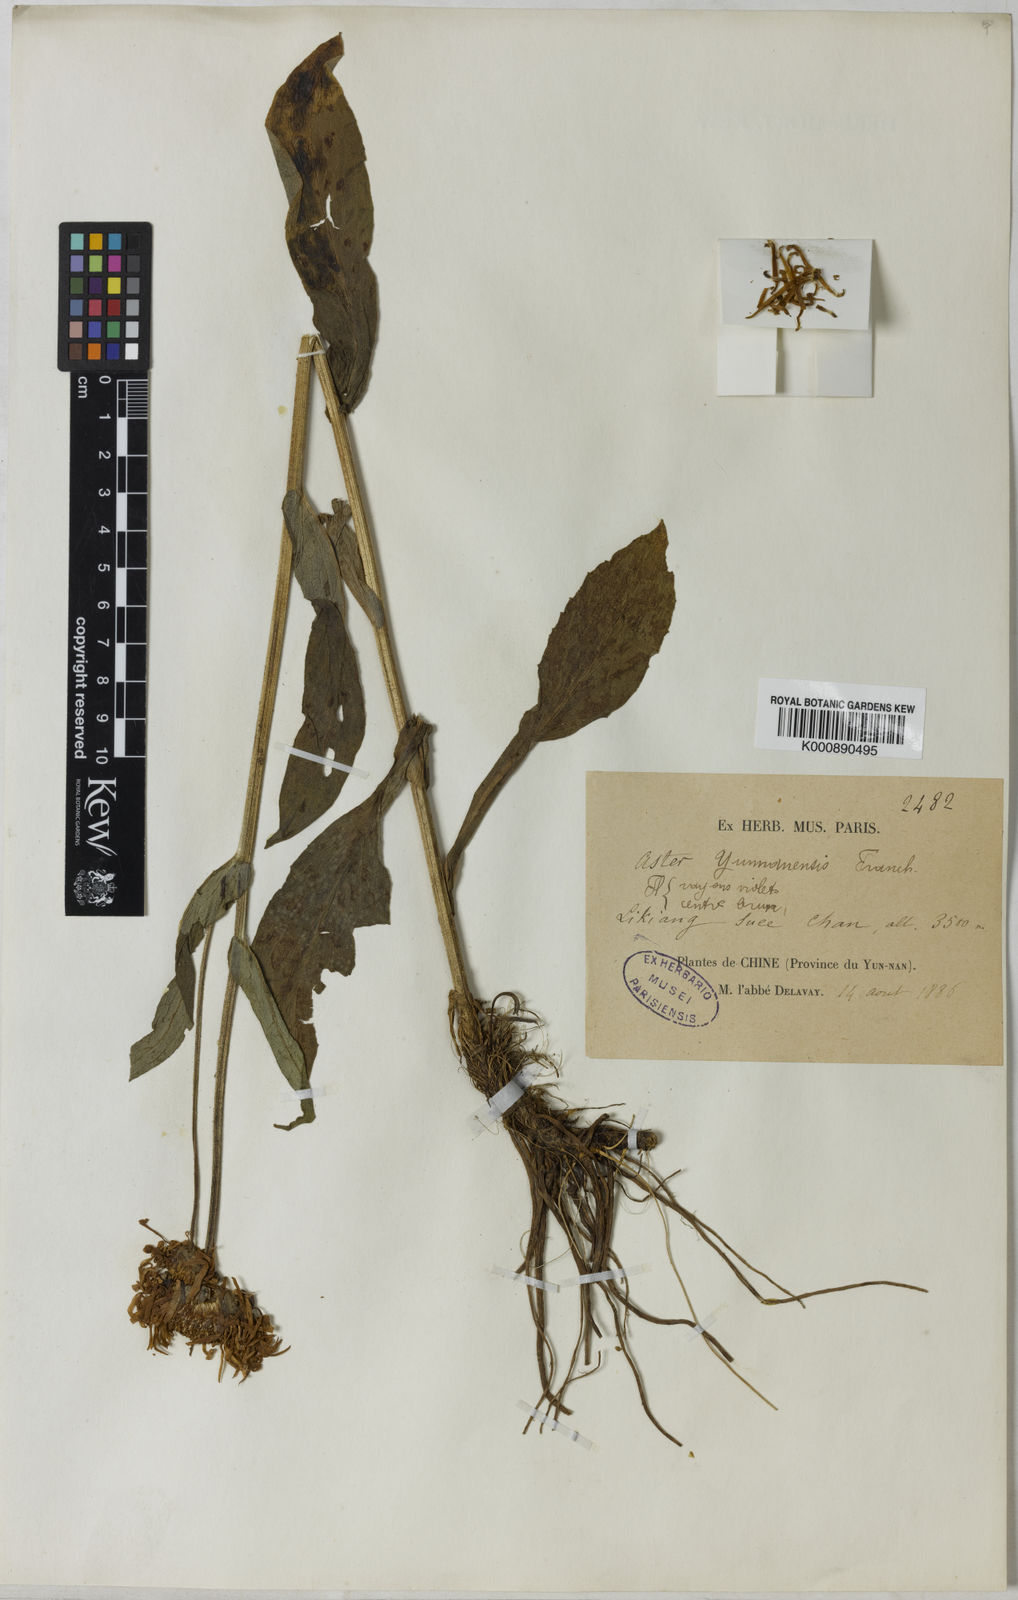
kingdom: Plantae
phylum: Tracheophyta
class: Magnoliopsida
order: Asterales
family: Asteraceae
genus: Tibetiodes
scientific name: Tibetiodes yunnanensis
